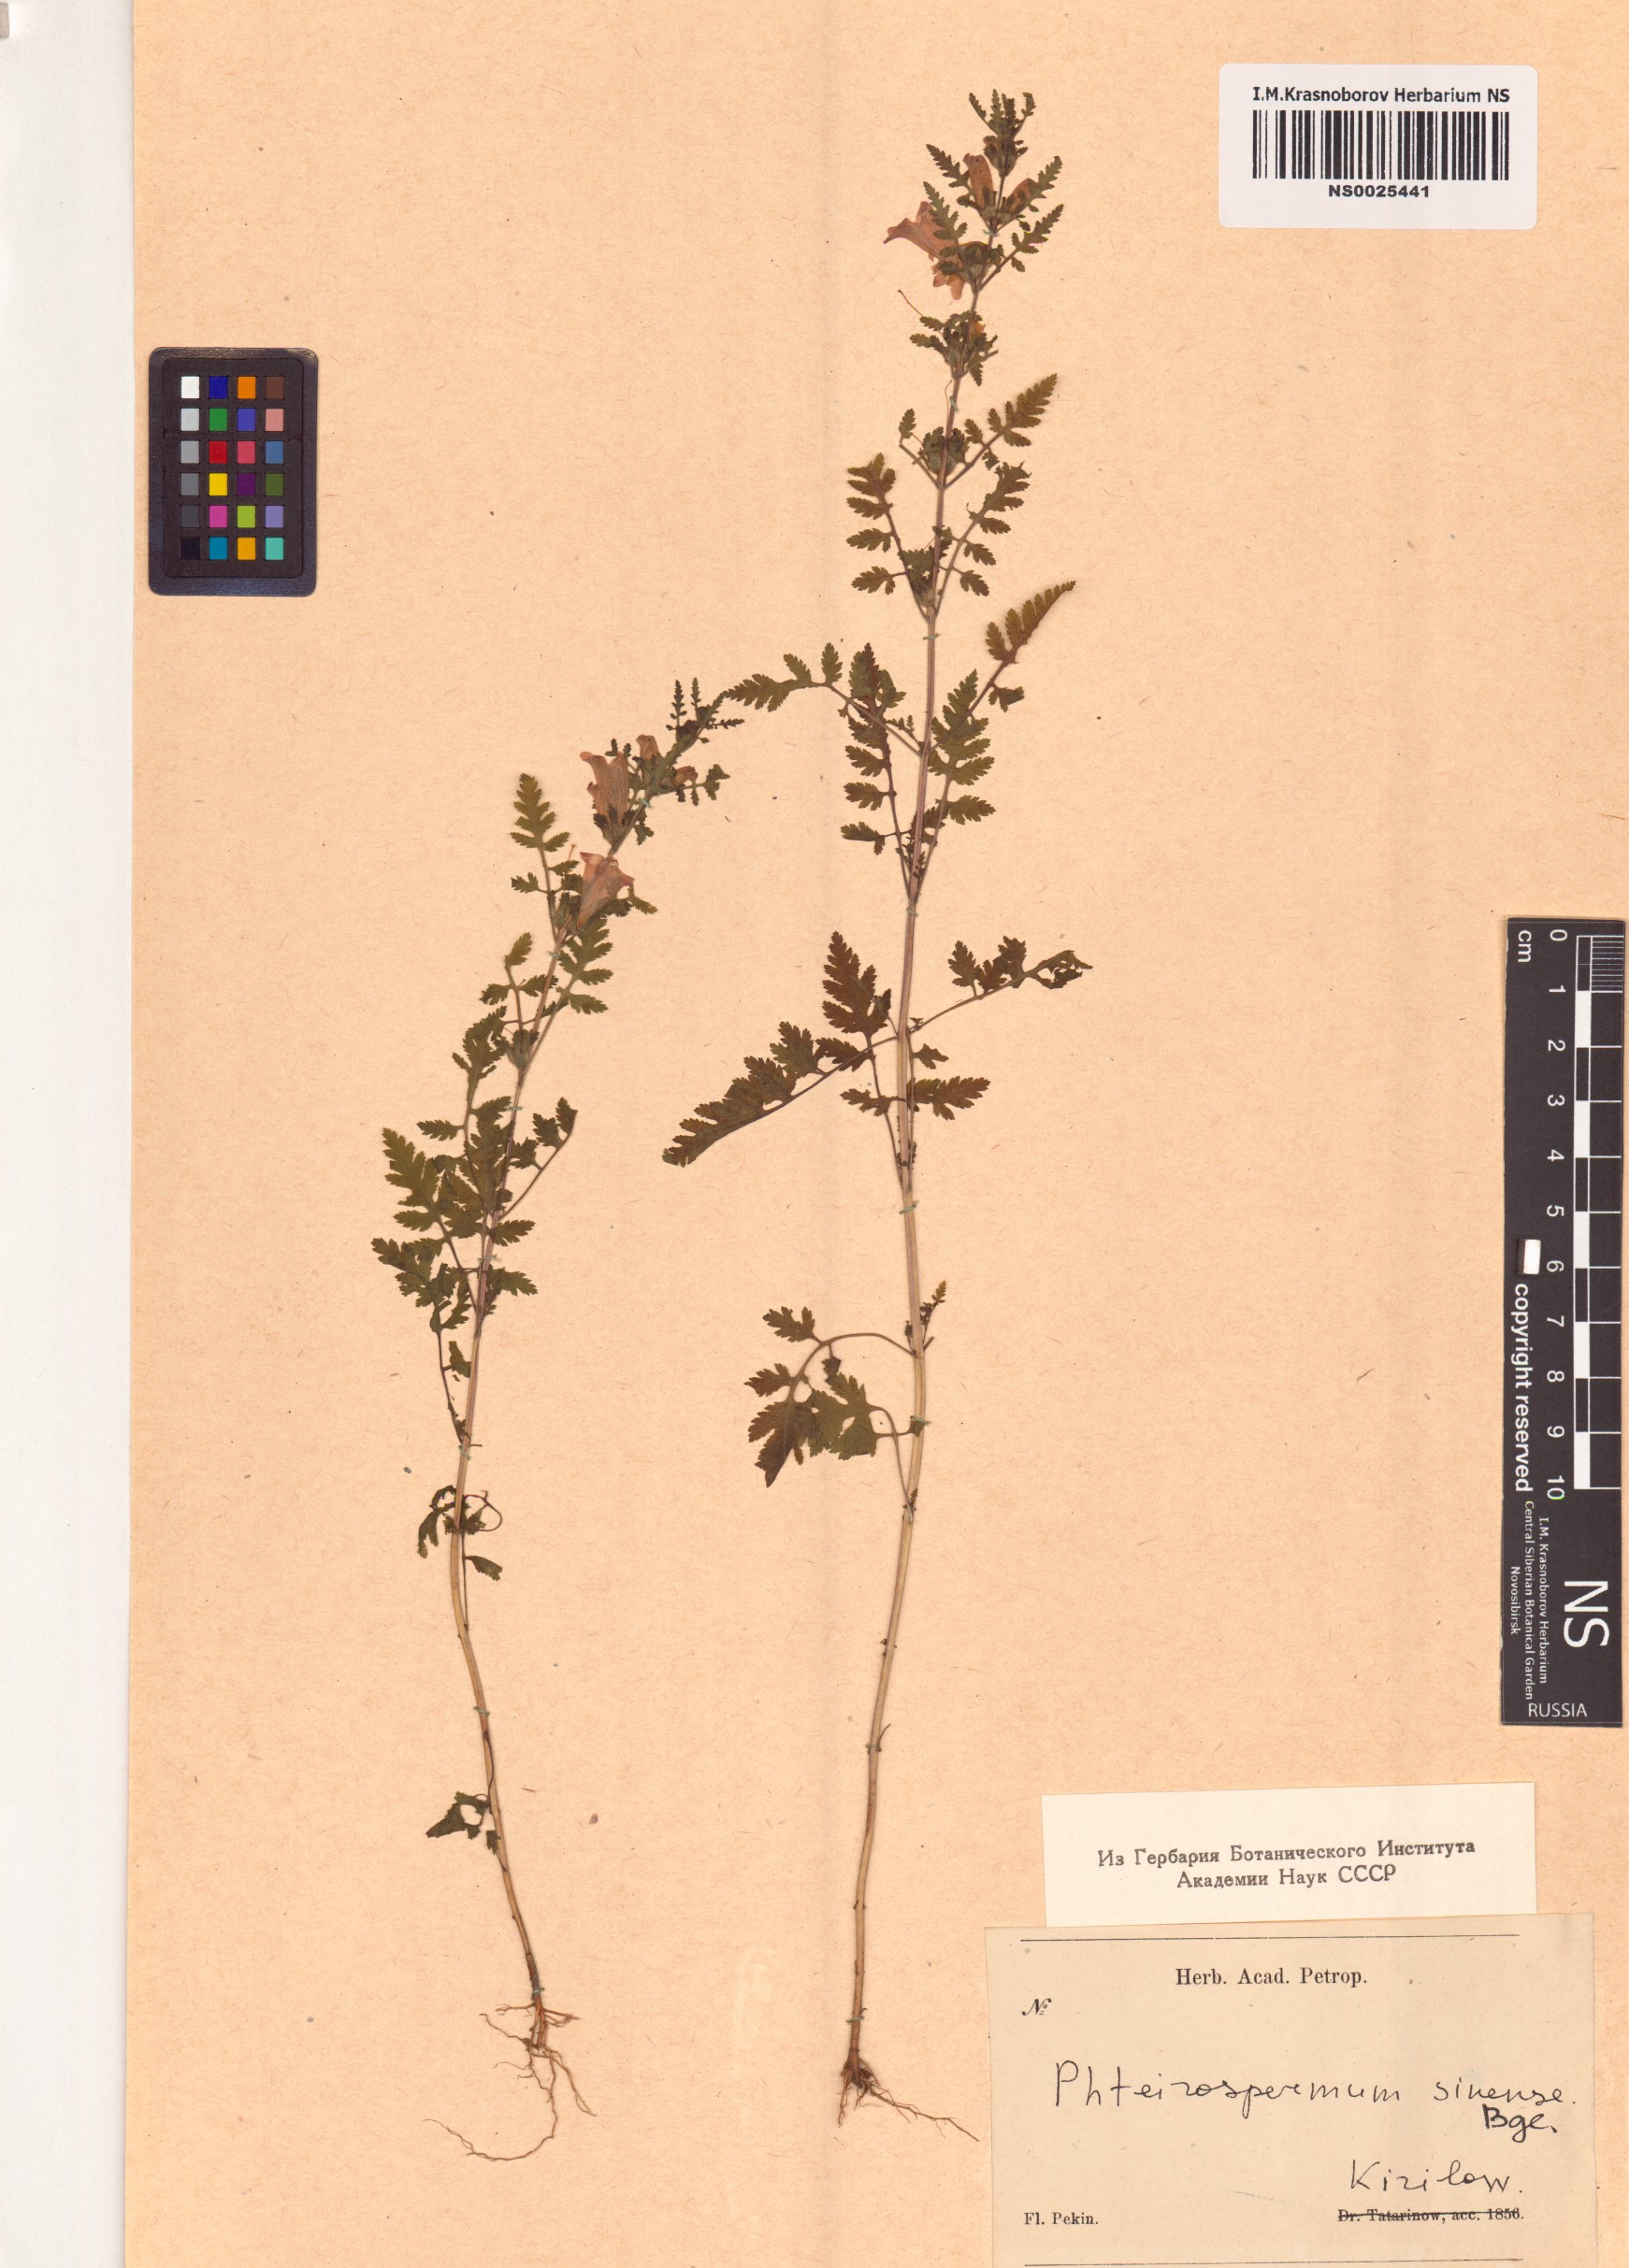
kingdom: Plantae
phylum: Tracheophyta
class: Magnoliopsida
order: Lamiales
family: Orobanchaceae
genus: Phtheirospermum
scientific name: Phtheirospermum japonicum
